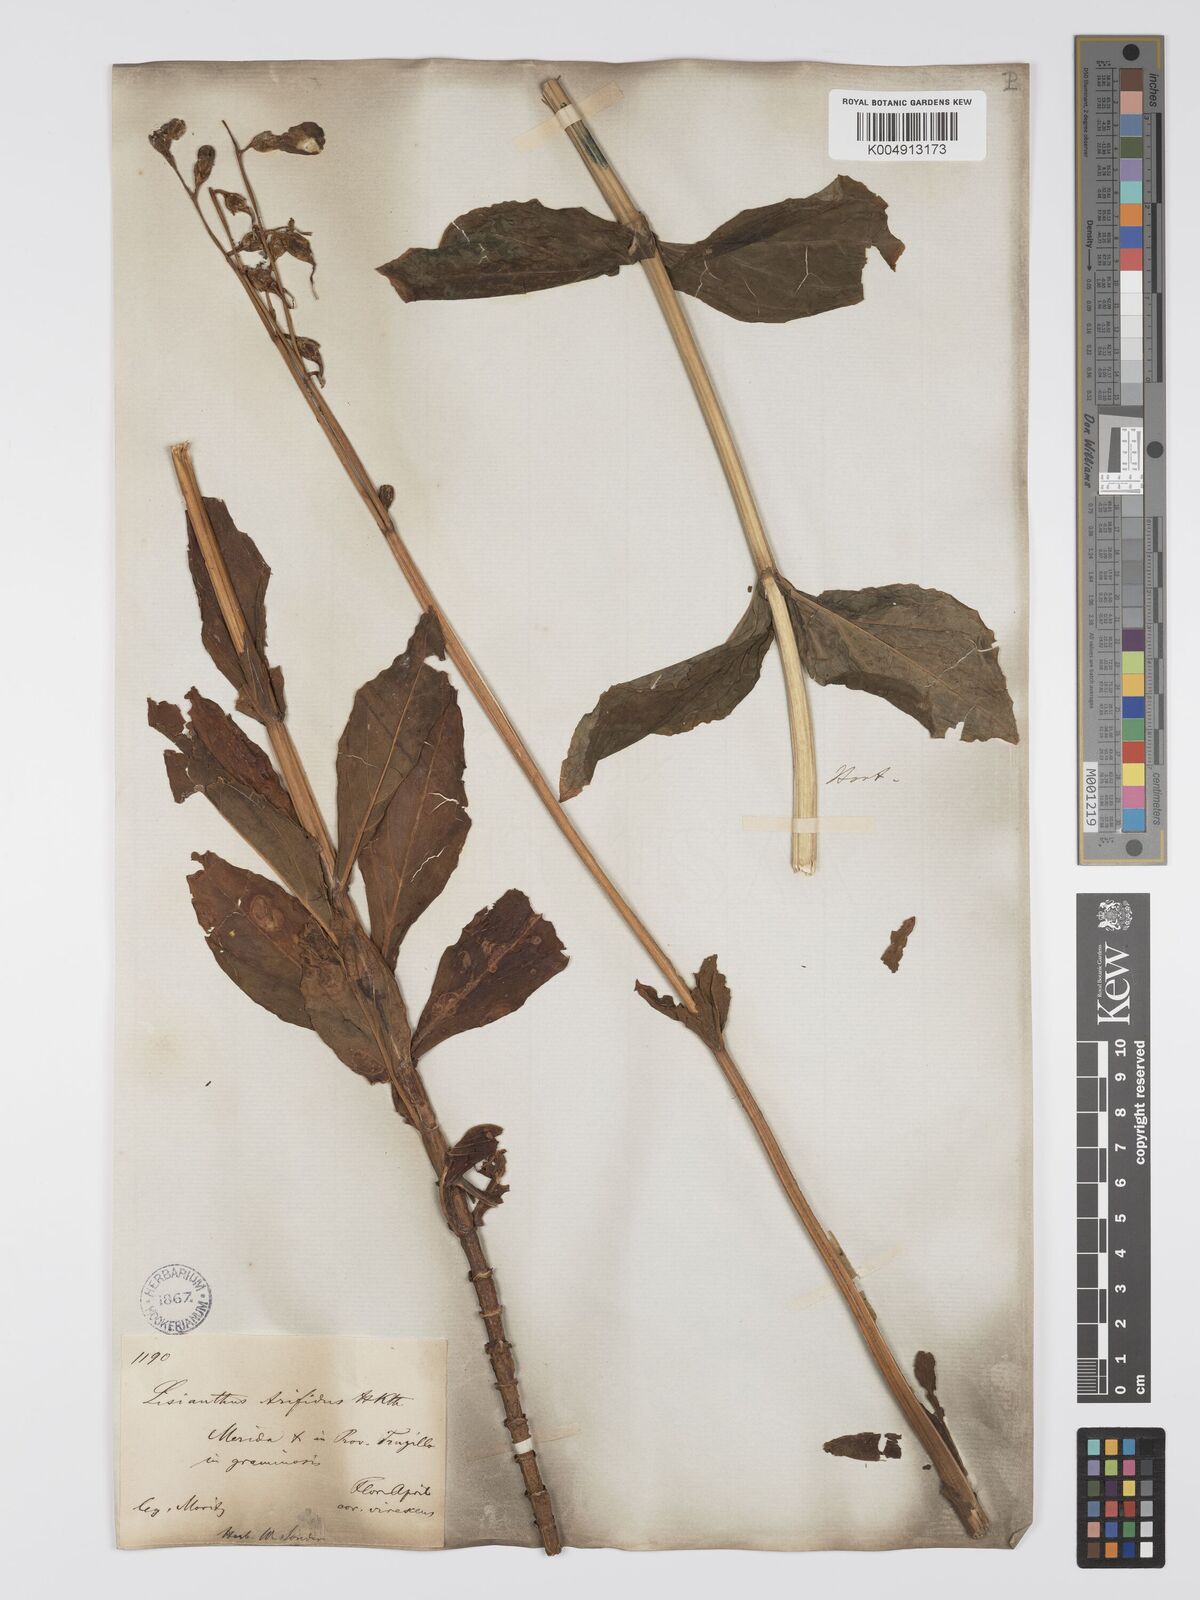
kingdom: Plantae
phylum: Tracheophyta
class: Magnoliopsida
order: Gentianales
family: Gentianaceae
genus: Chelonanthus
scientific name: Chelonanthus
